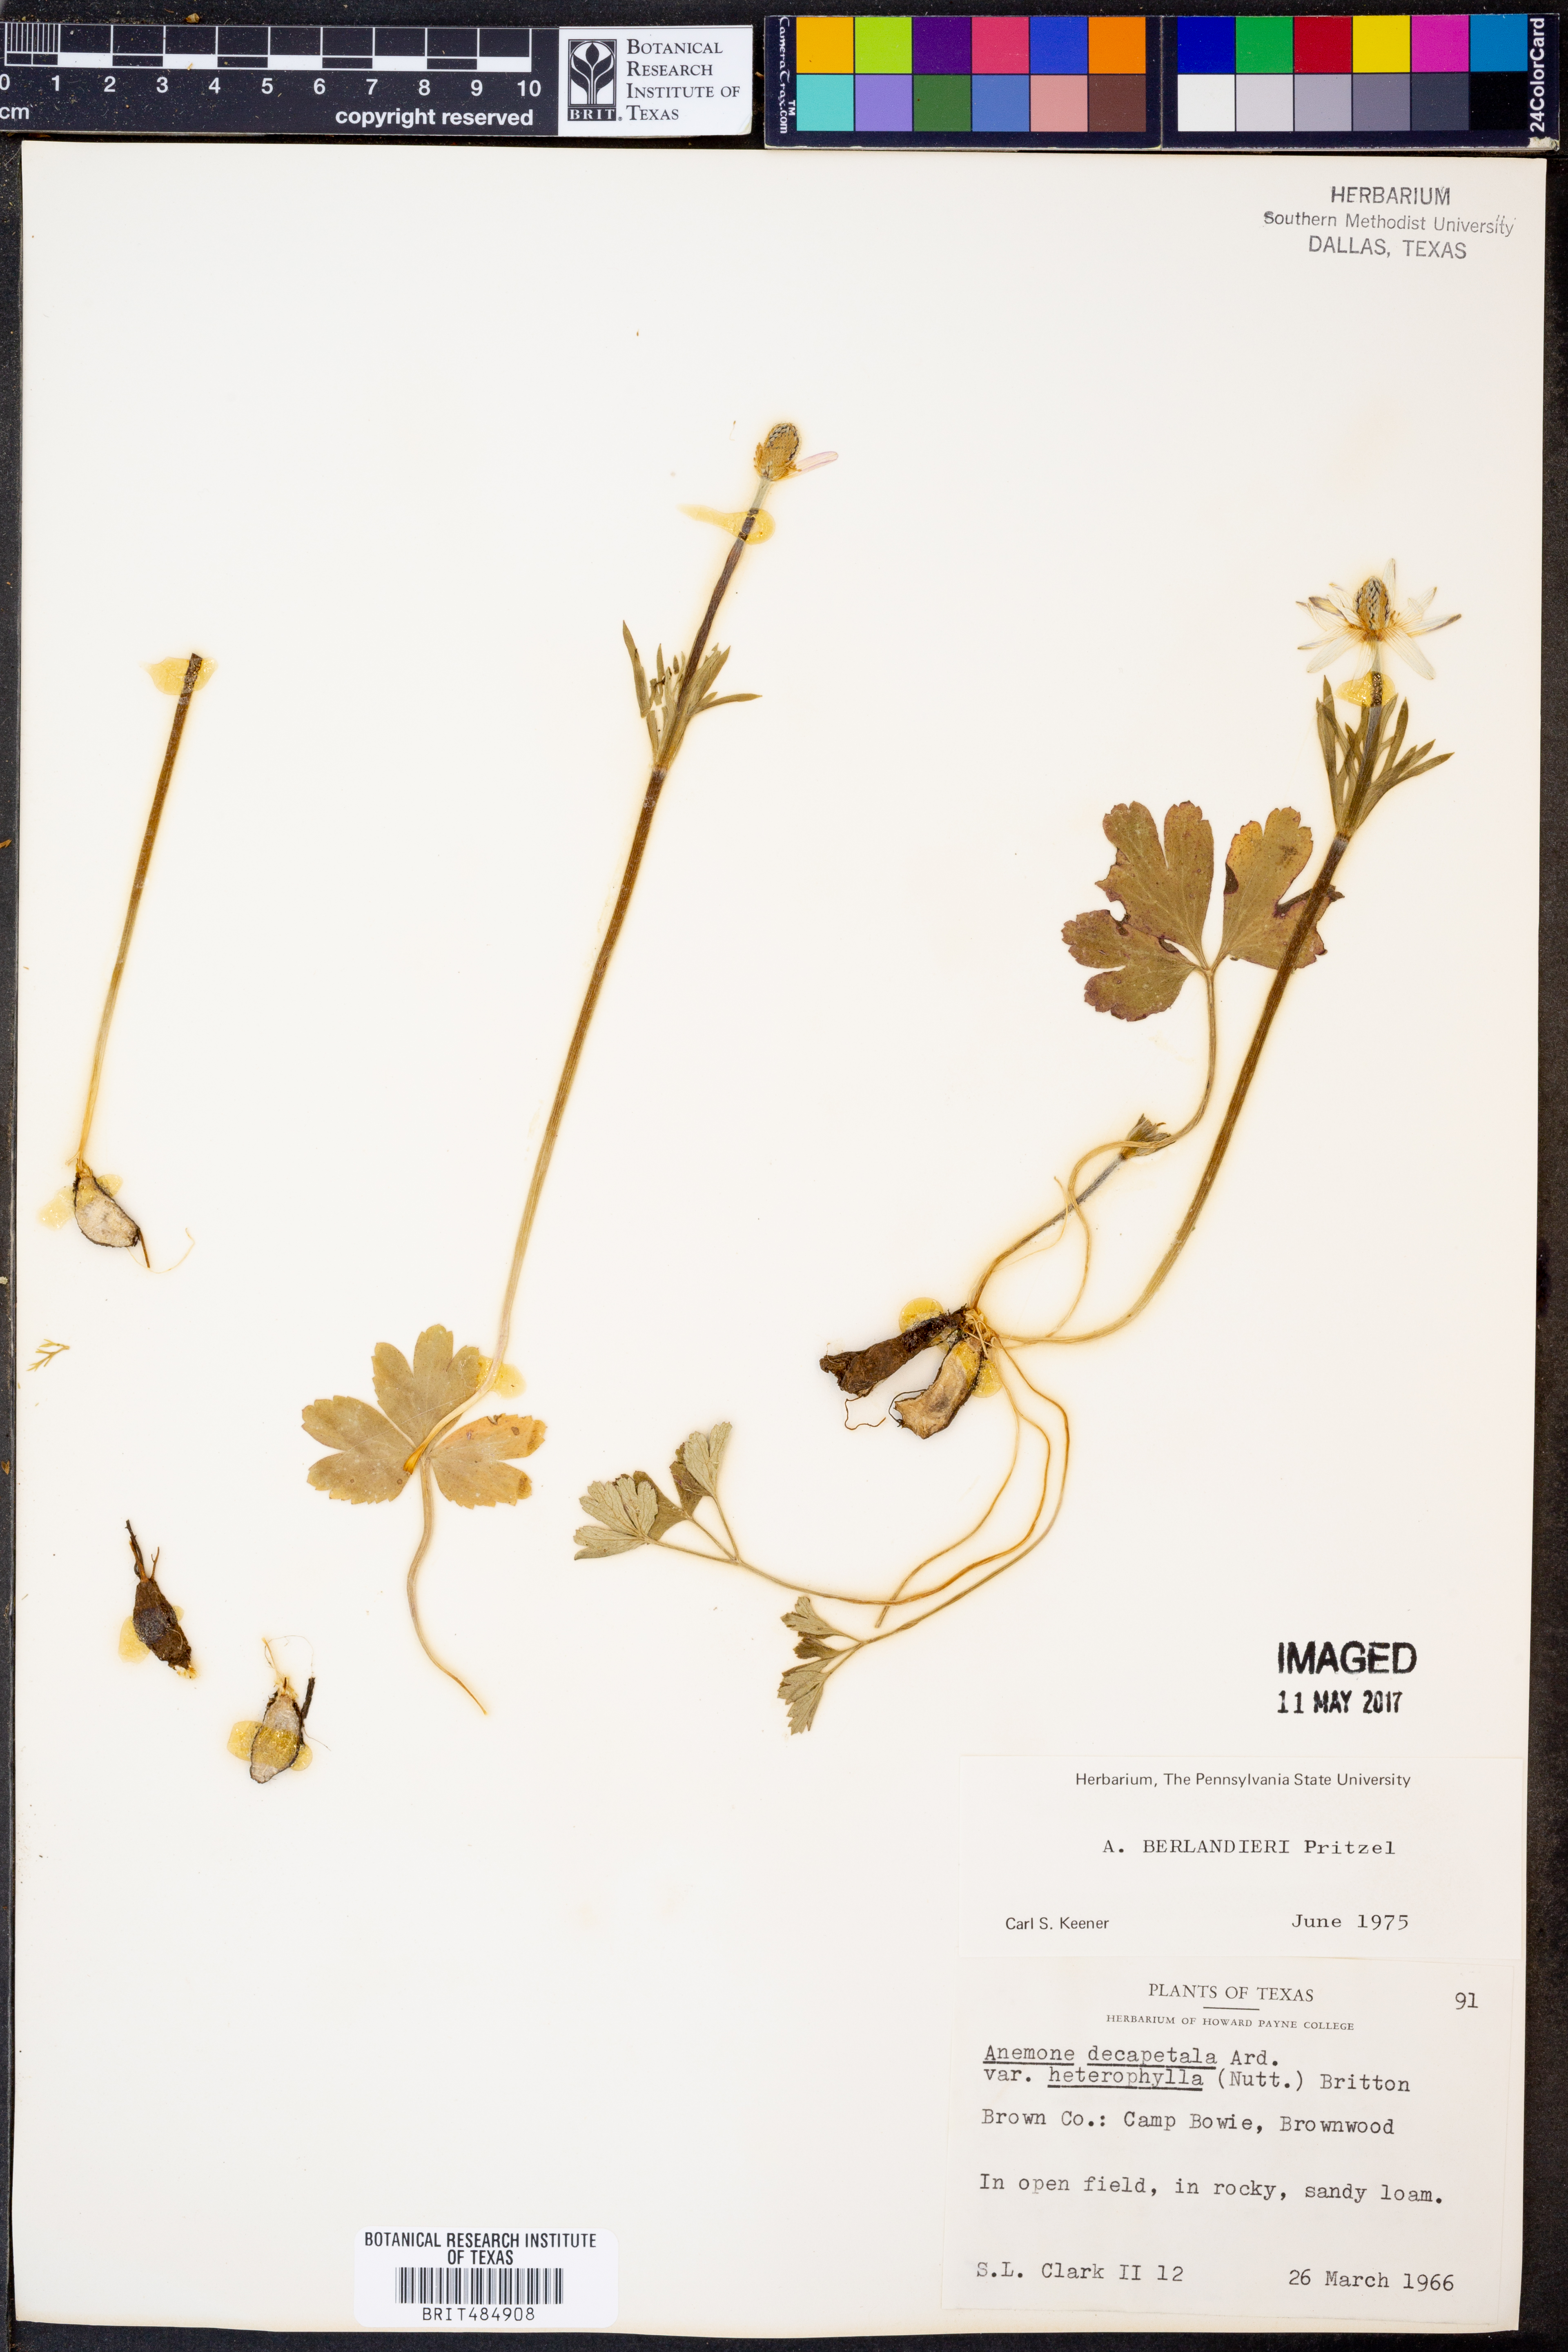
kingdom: Plantae
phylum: Tracheophyta
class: Magnoliopsida
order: Ranunculales
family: Ranunculaceae
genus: Anemone
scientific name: Anemone berlandieri
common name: Ten-petal anemone
